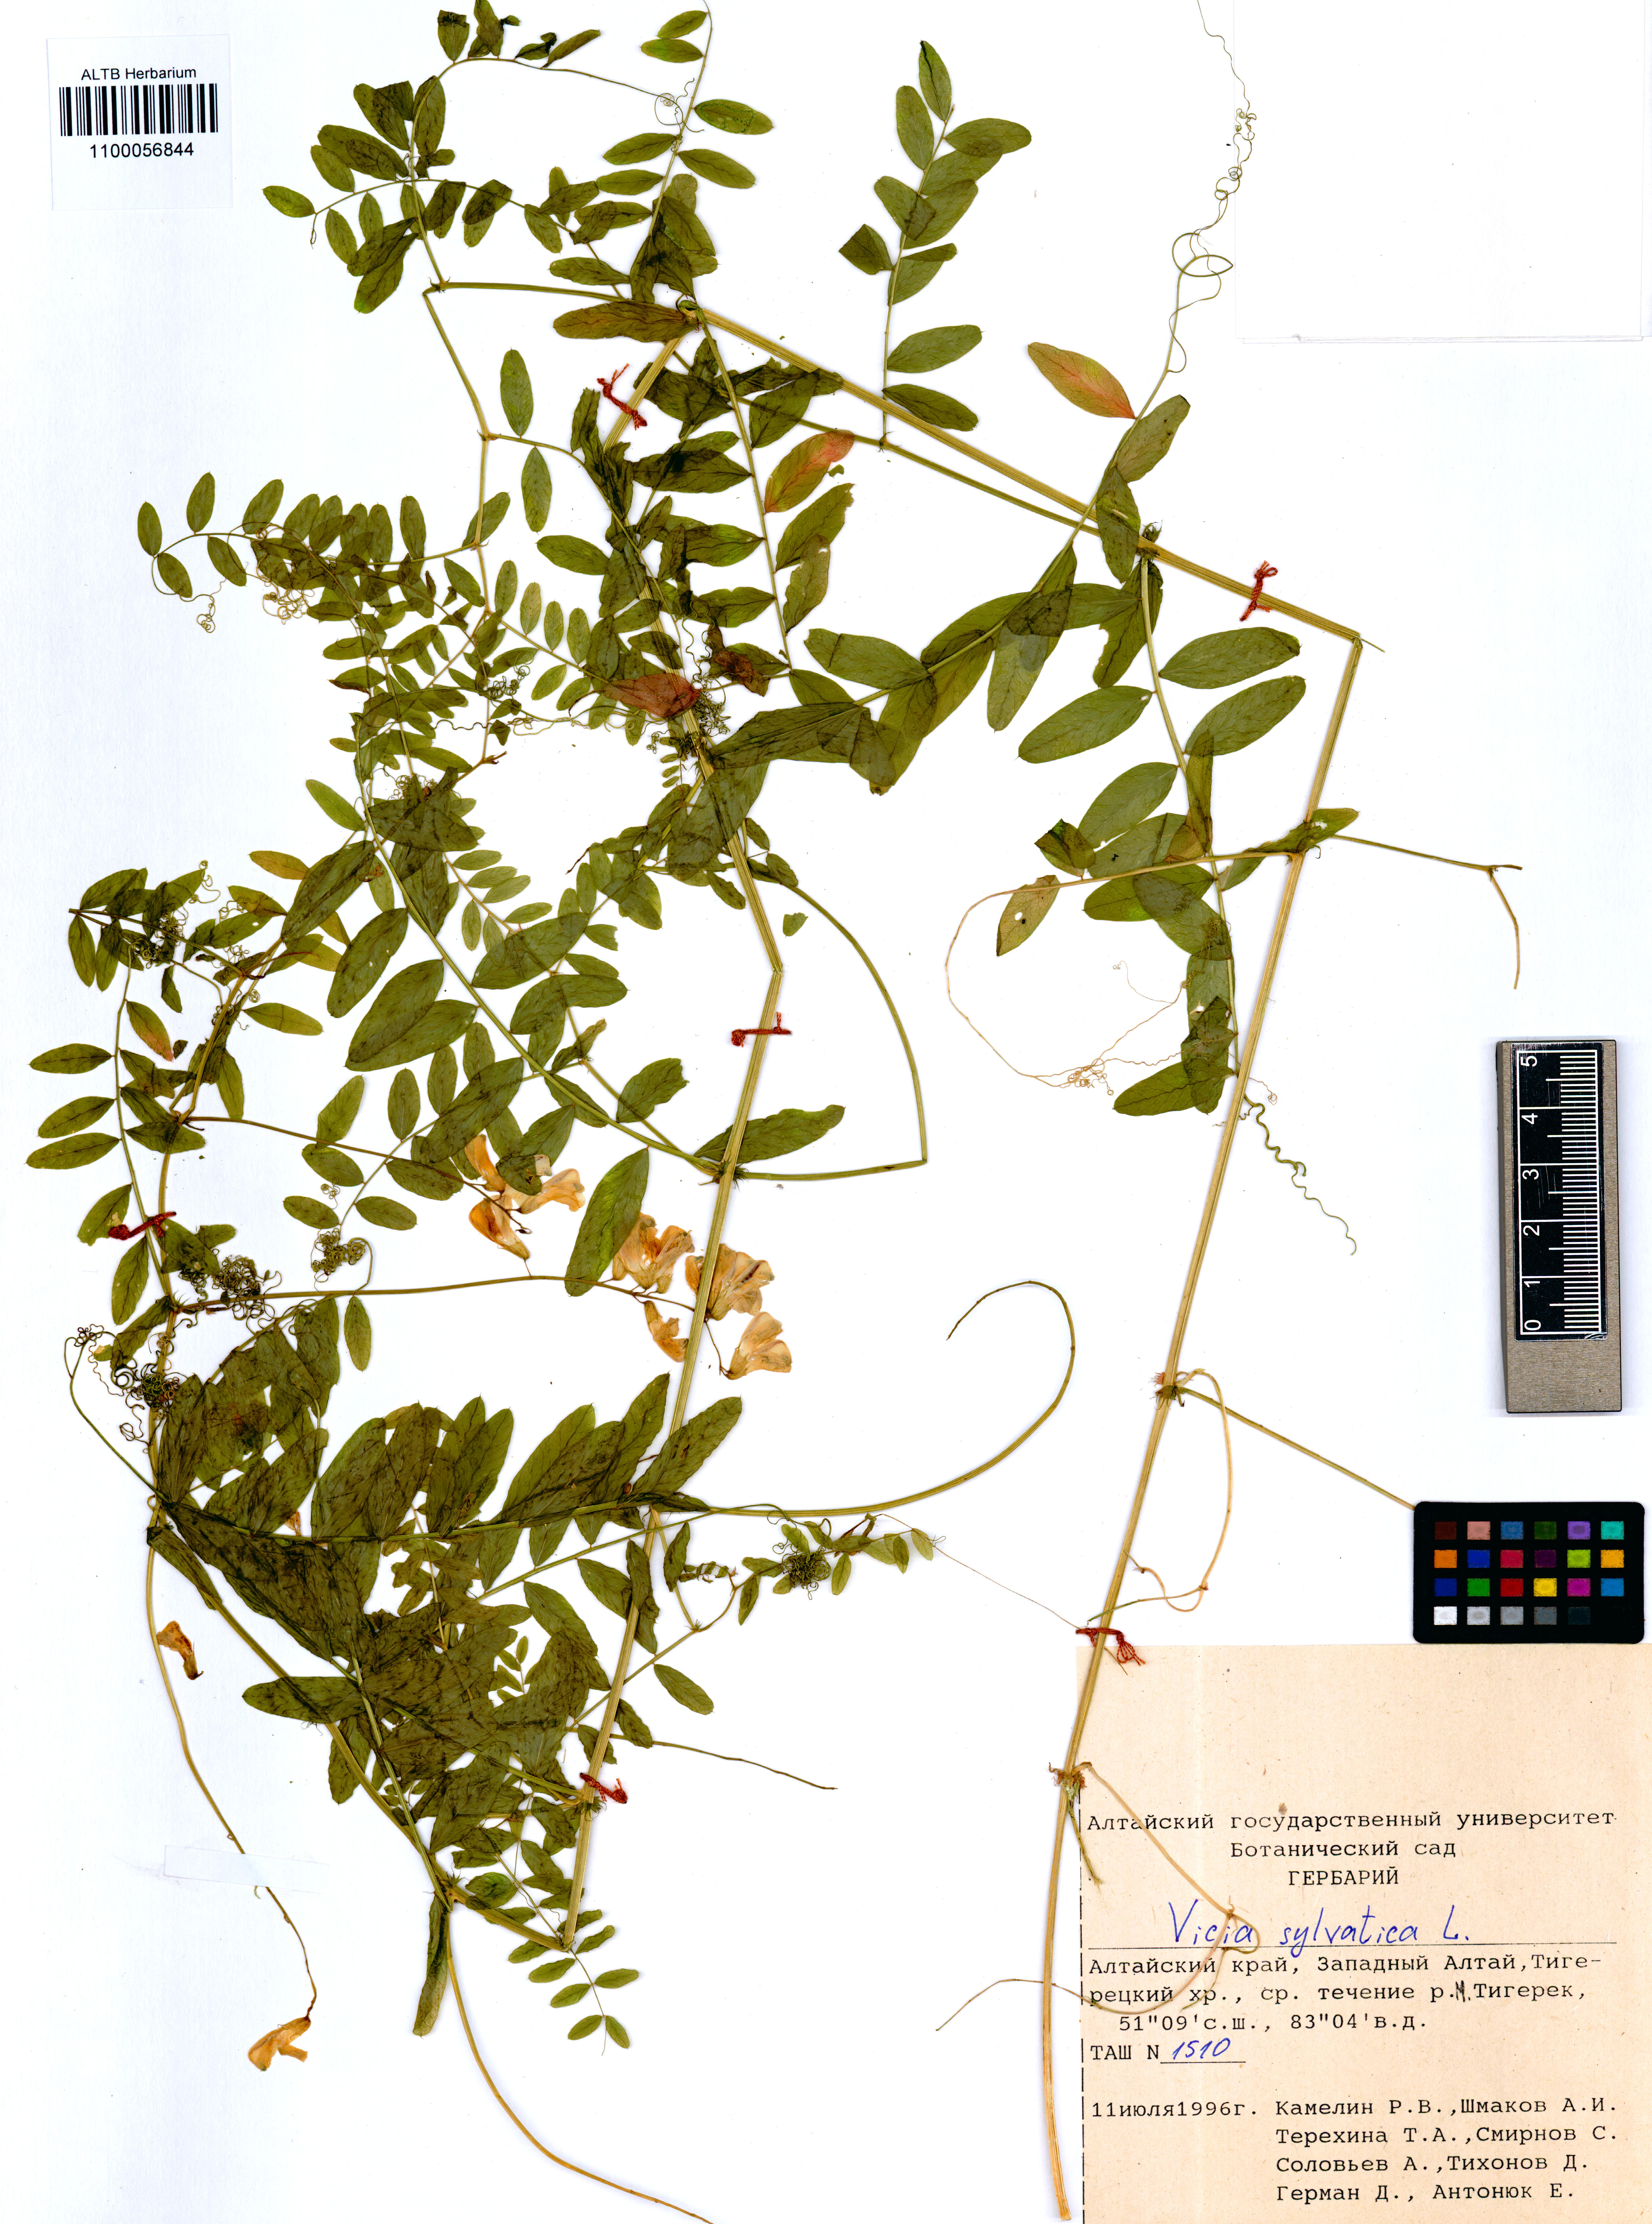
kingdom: Plantae
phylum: Tracheophyta
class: Magnoliopsida
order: Fabales
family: Fabaceae
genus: Vicia
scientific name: Vicia sylvatica
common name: Wood vetch
